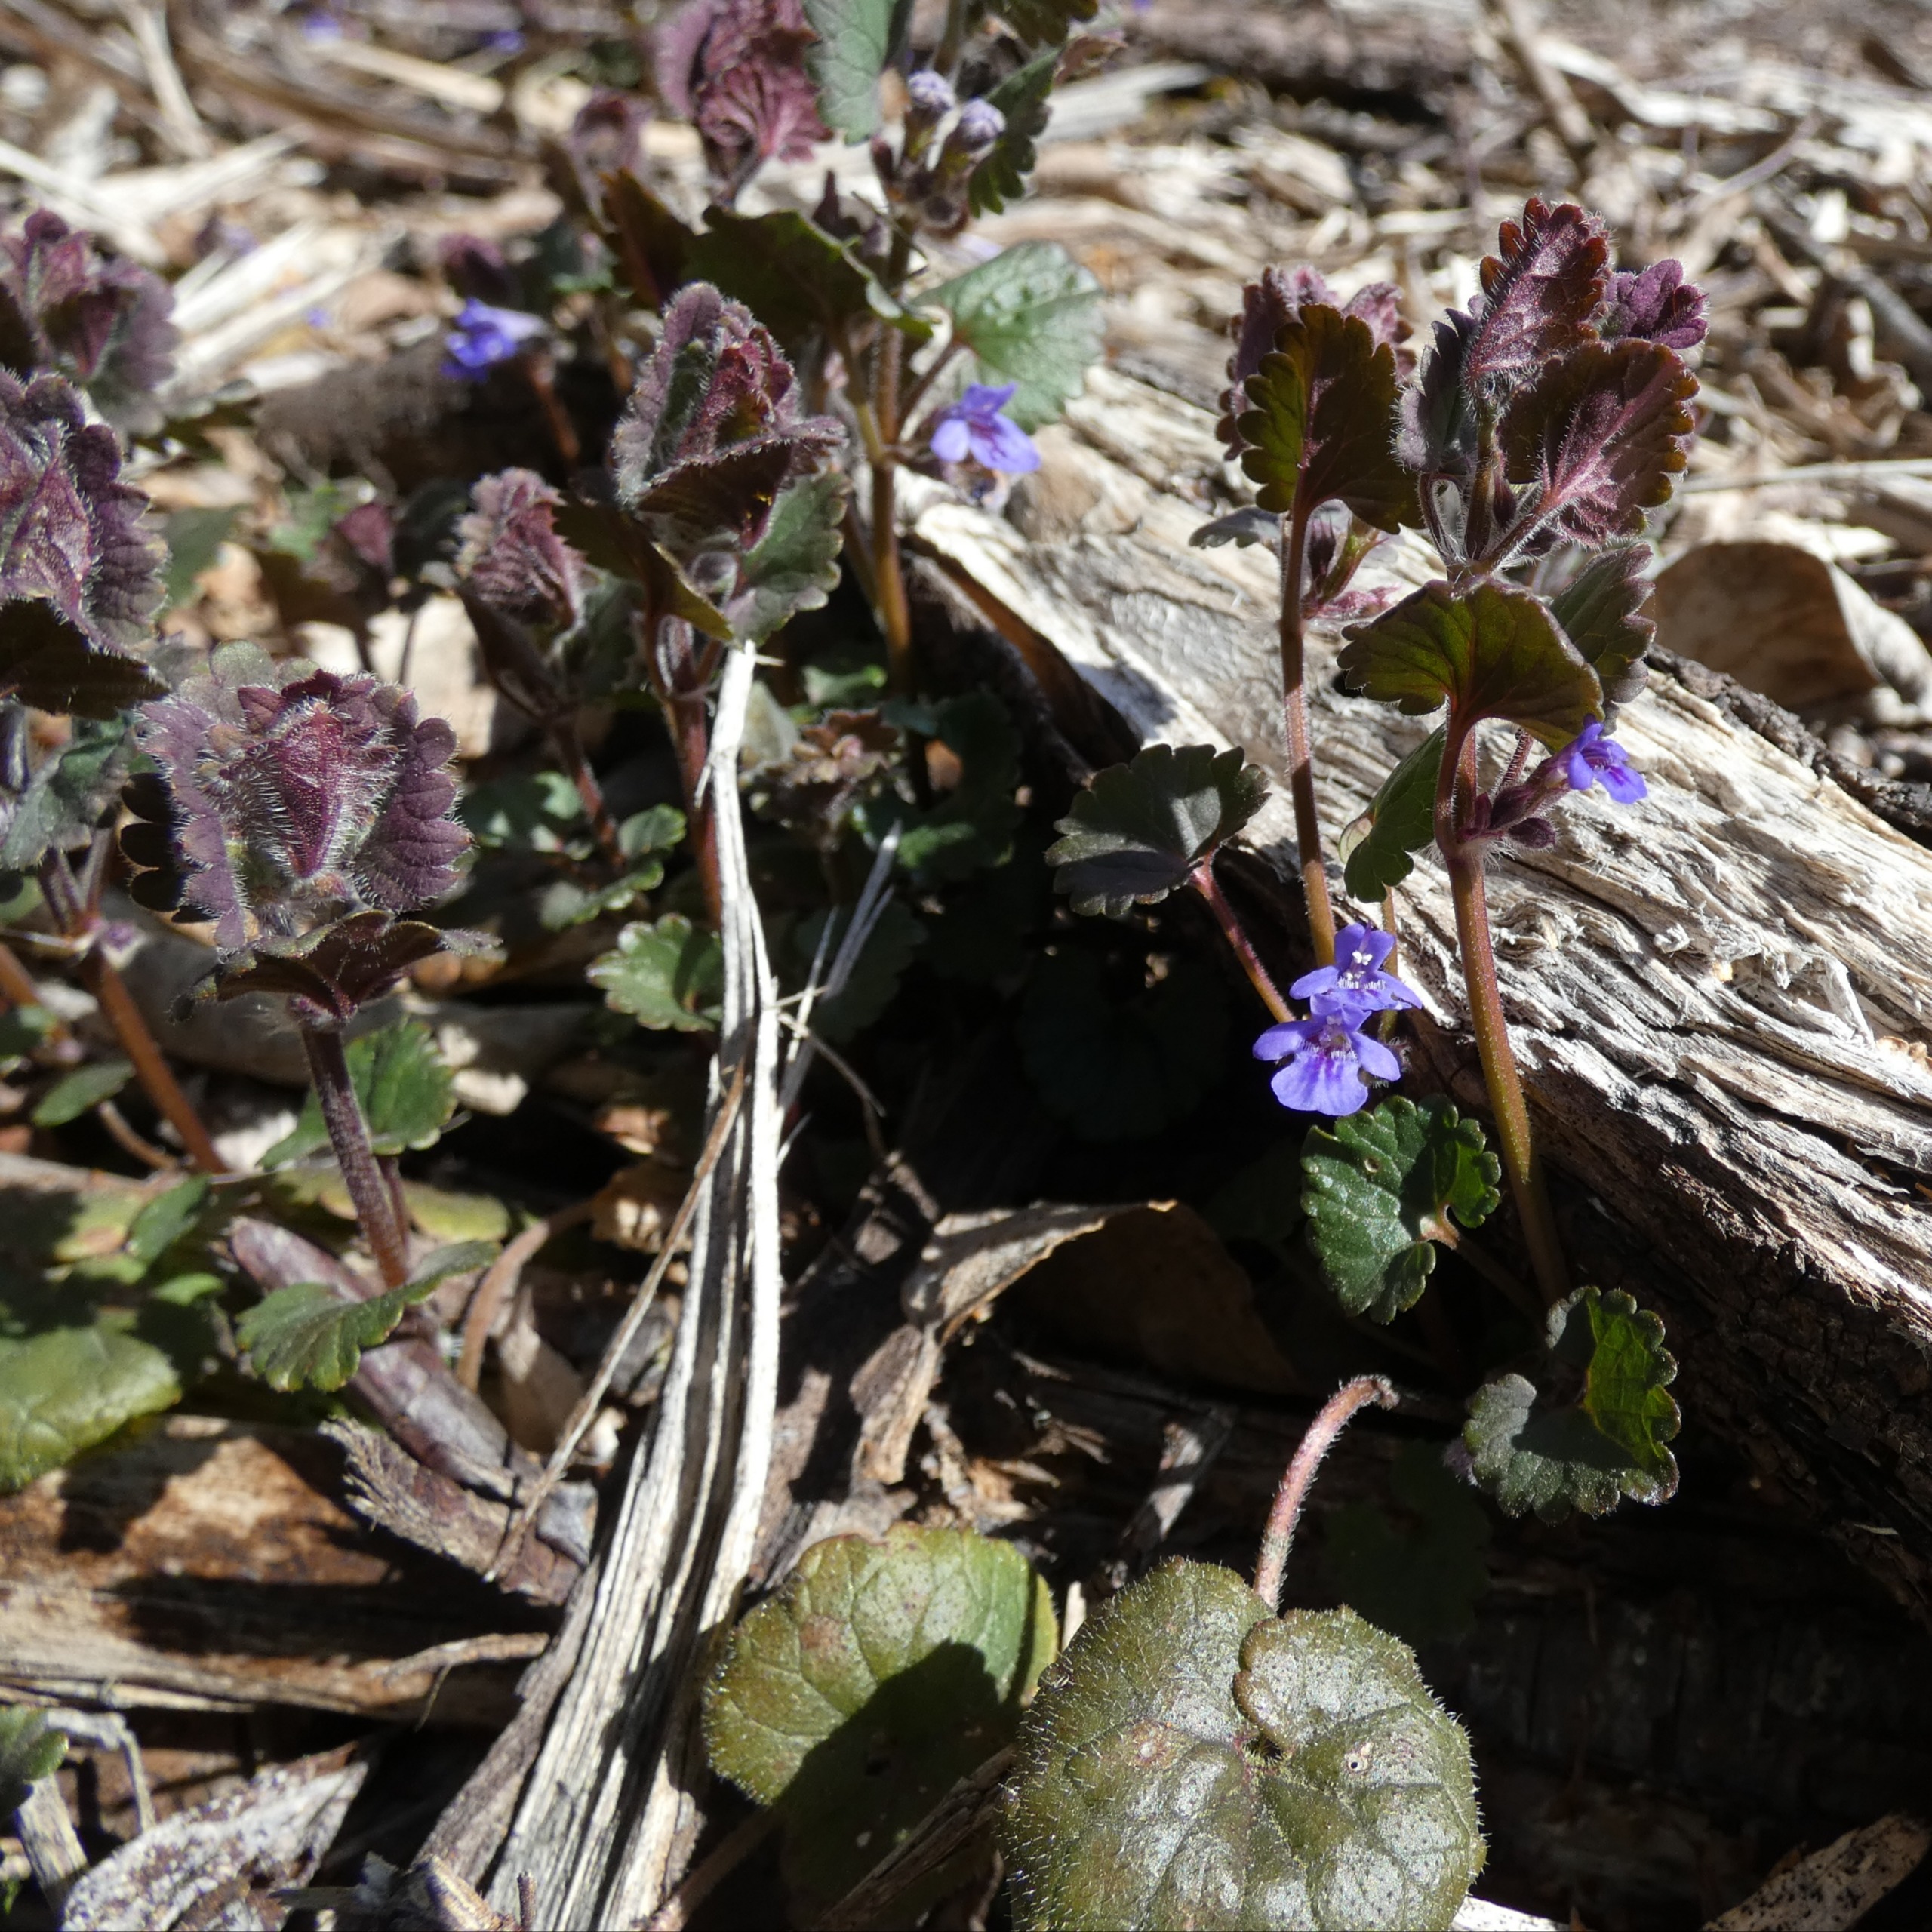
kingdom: Plantae
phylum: Tracheophyta
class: Magnoliopsida
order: Lamiales
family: Lamiaceae
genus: Glechoma
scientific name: Glechoma hederacea
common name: Korsknap
